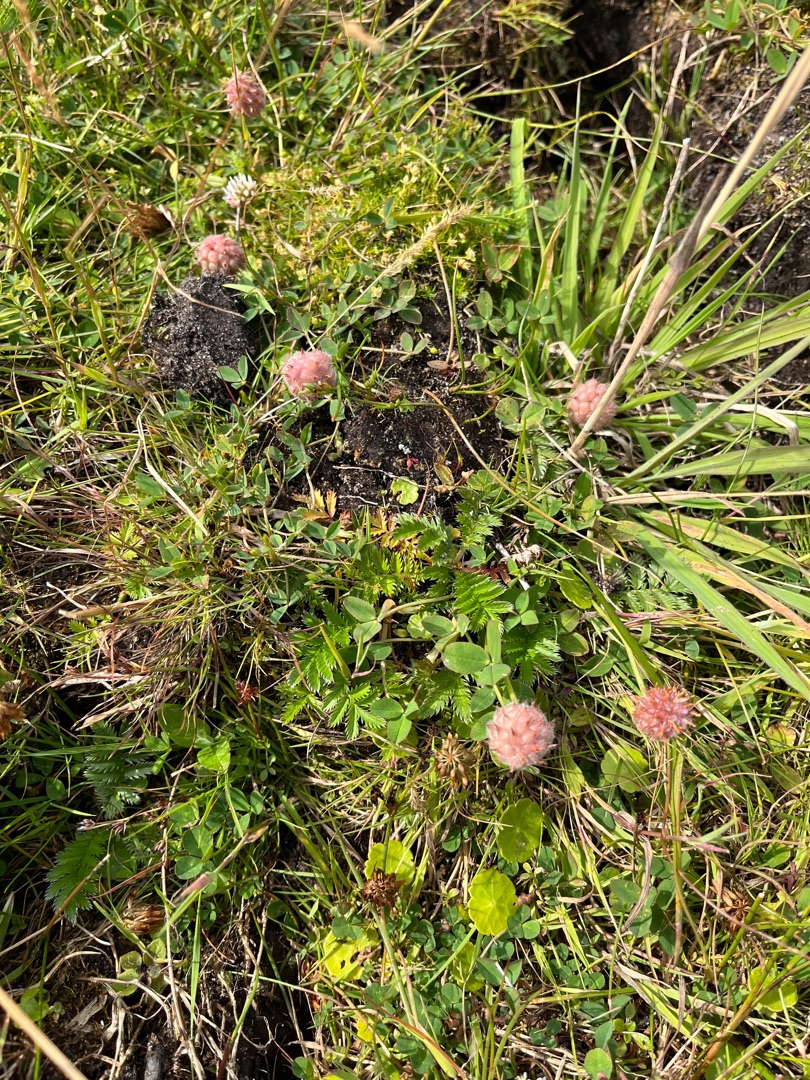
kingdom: Plantae
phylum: Tracheophyta
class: Magnoliopsida
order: Fabales
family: Fabaceae
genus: Trifolium
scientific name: Trifolium fragiferum
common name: Jordbær-kløver
